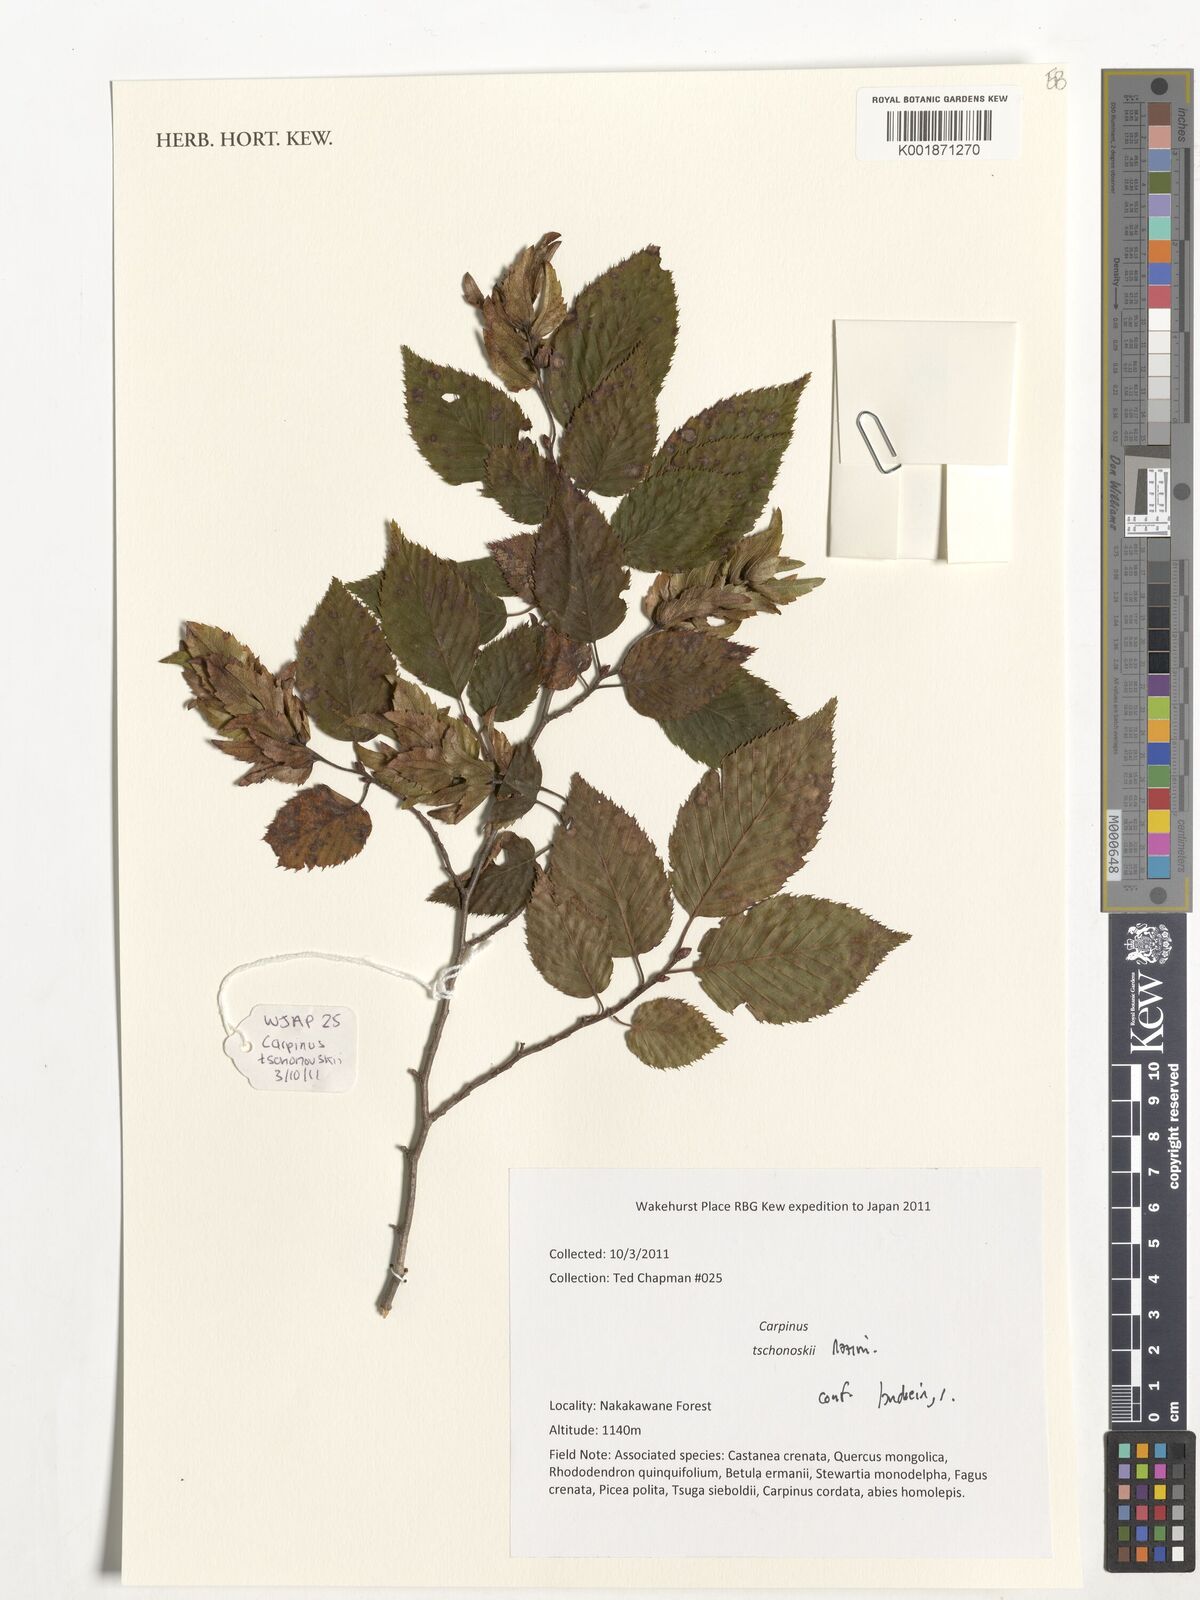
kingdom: Plantae
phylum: Tracheophyta
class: Magnoliopsida
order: Fagales
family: Betulaceae
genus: Carpinus
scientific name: Carpinus tschonoskii
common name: Asian hornbeam
